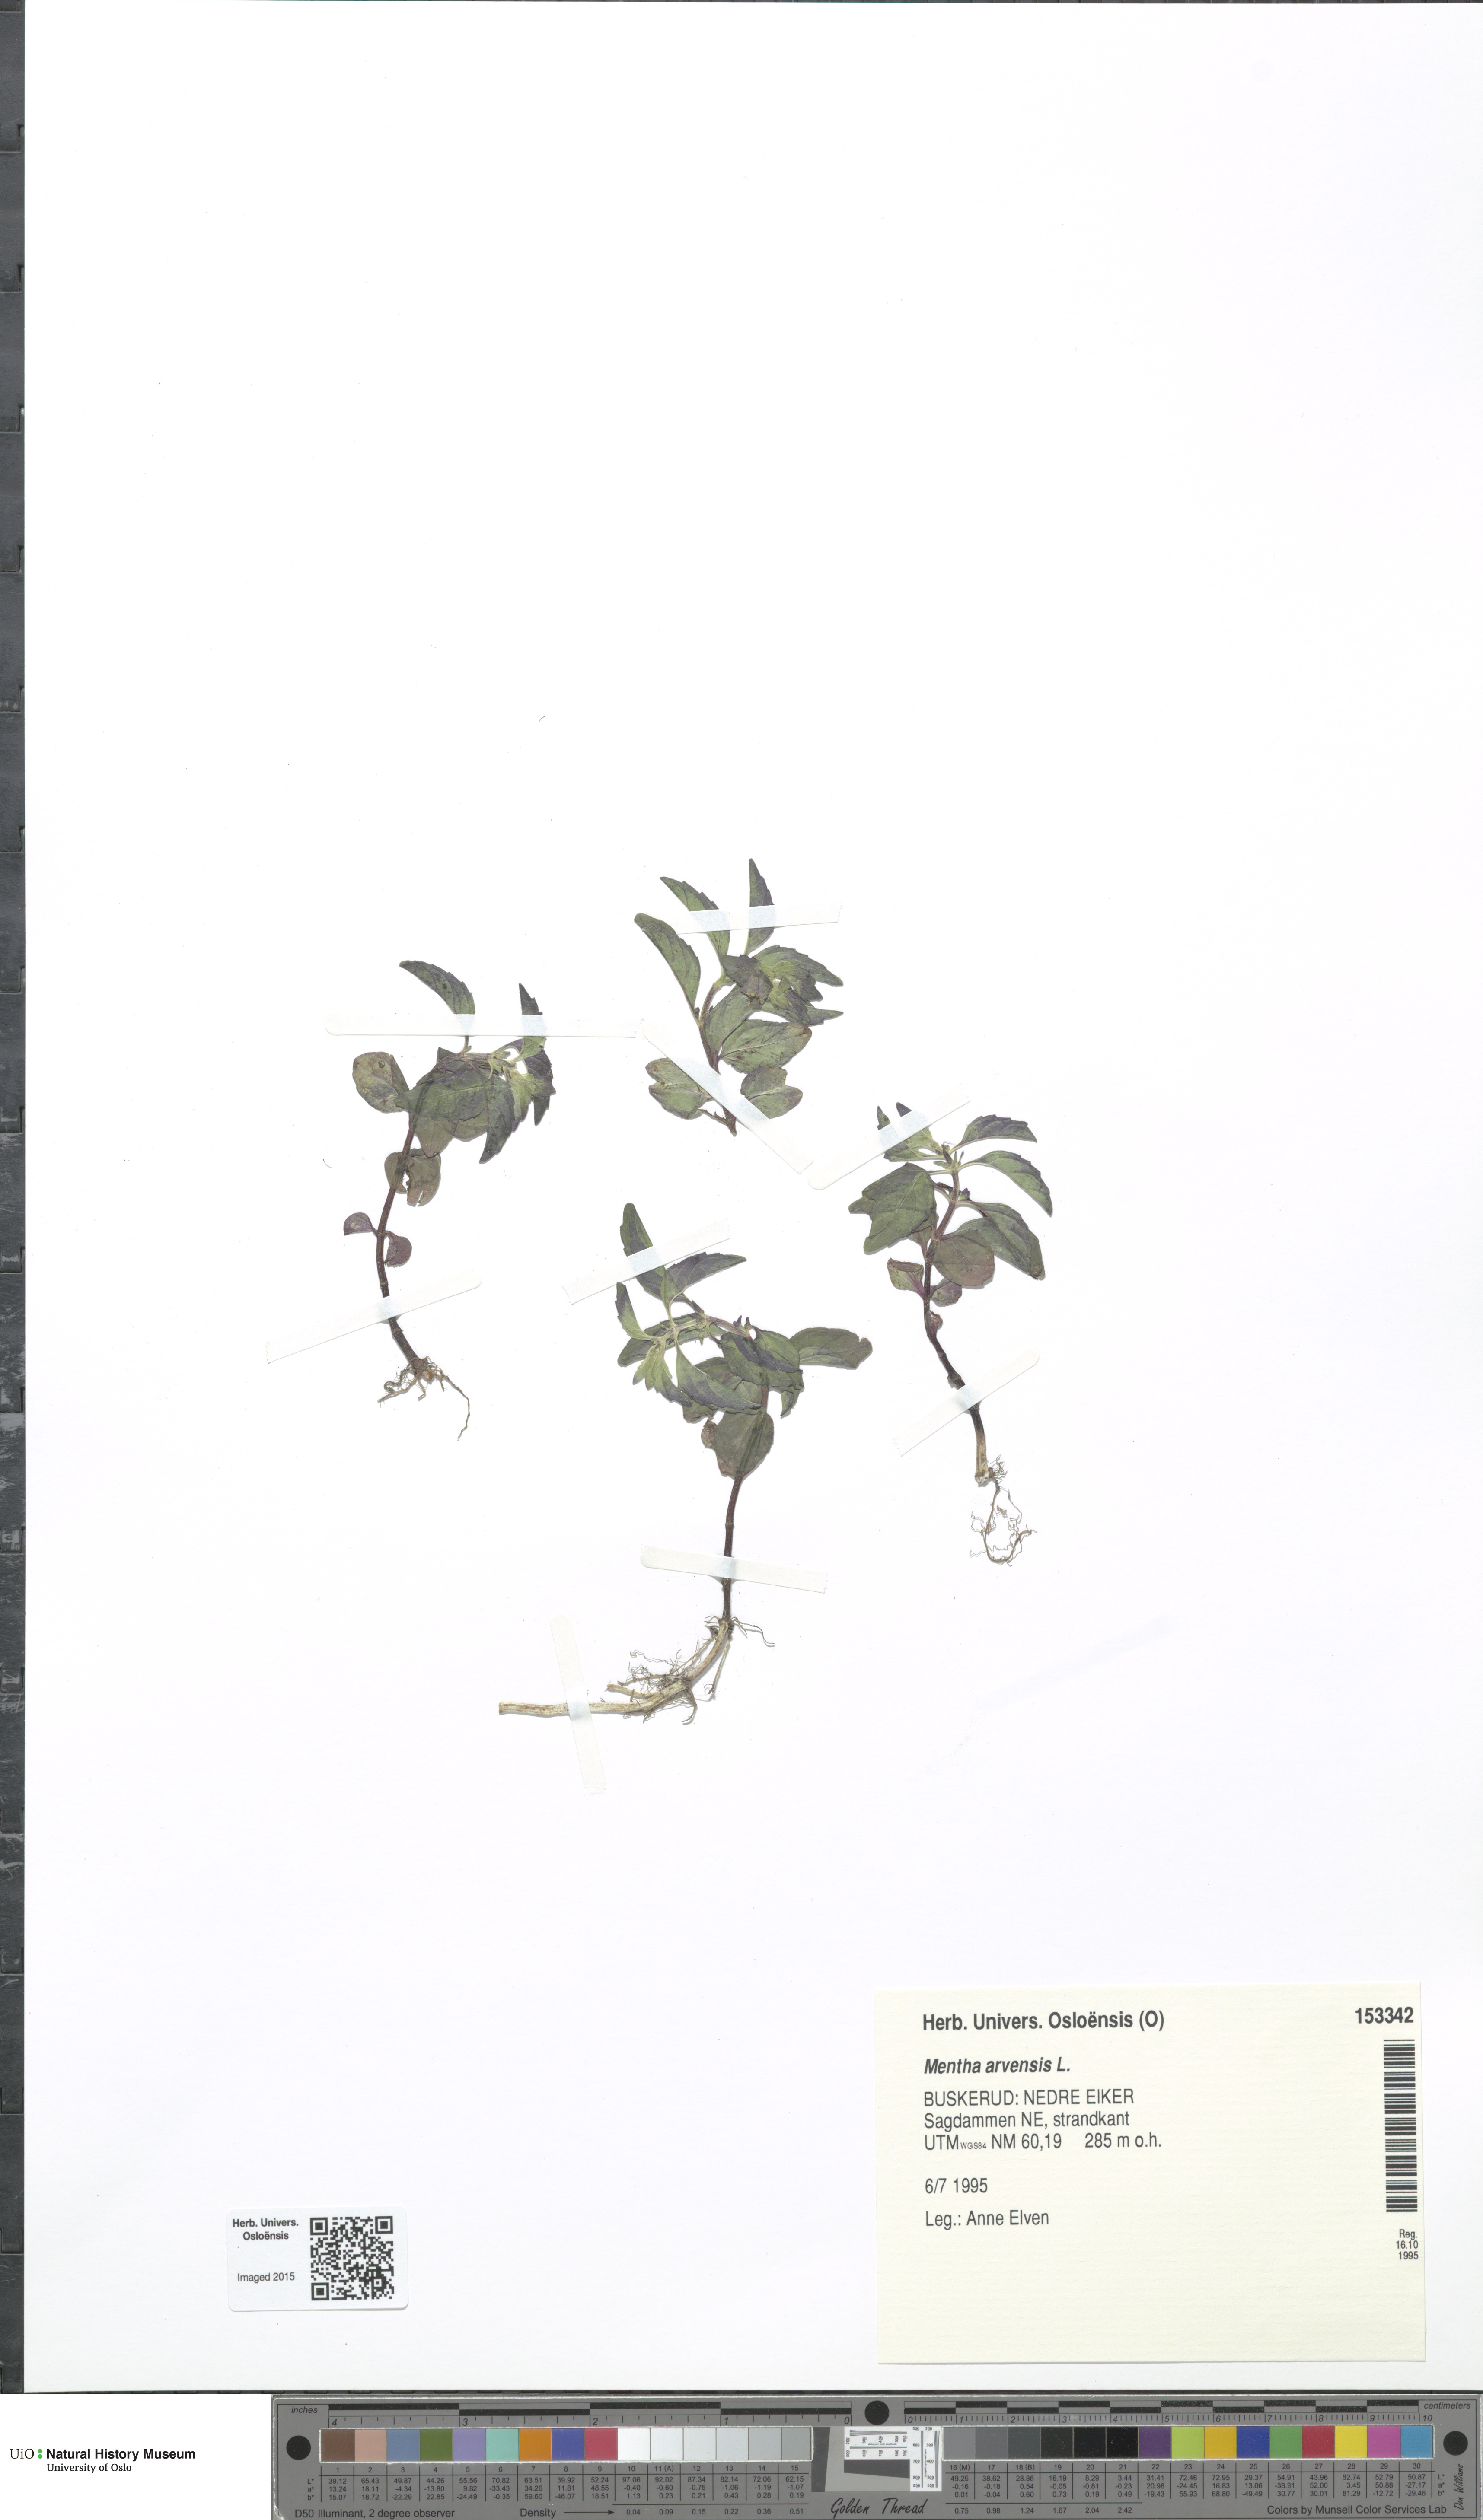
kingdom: Plantae
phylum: Tracheophyta
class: Magnoliopsida
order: Lamiales
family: Lamiaceae
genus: Mentha
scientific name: Mentha arvensis
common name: Corn mint
